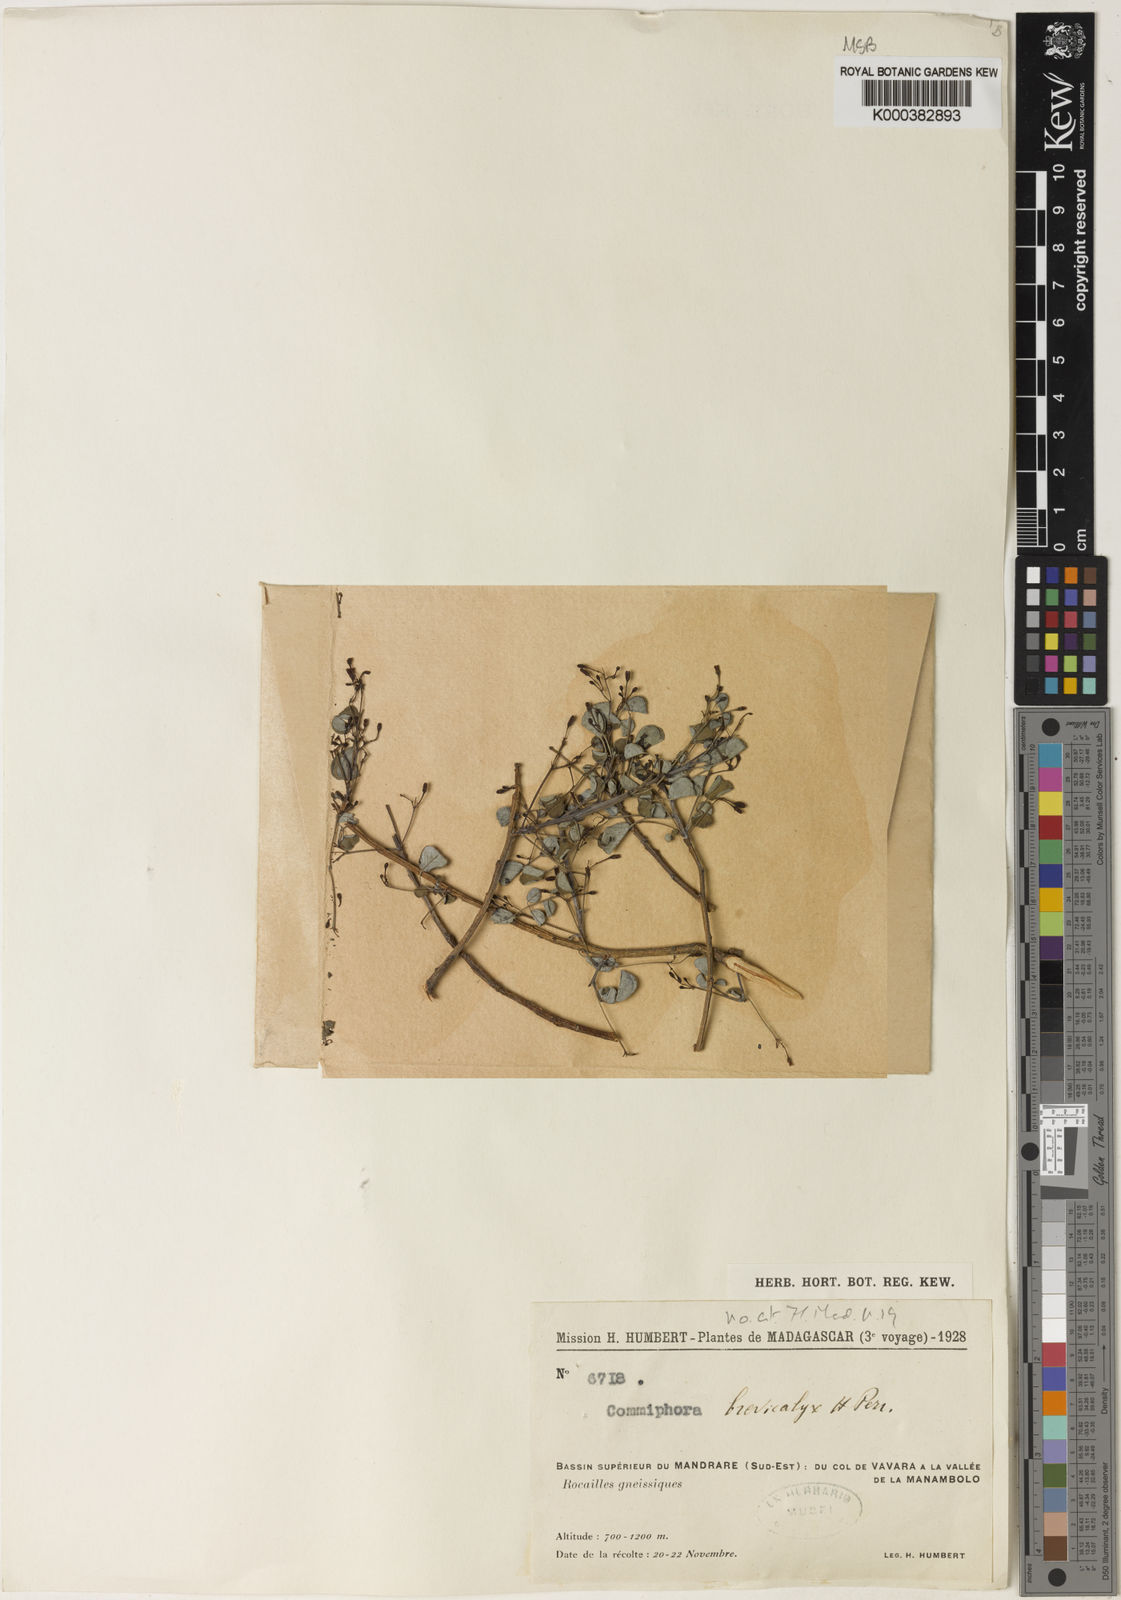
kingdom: Plantae
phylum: Tracheophyta
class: Magnoliopsida
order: Sapindales
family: Burseraceae
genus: Commiphora
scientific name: Commiphora brevicalyx
